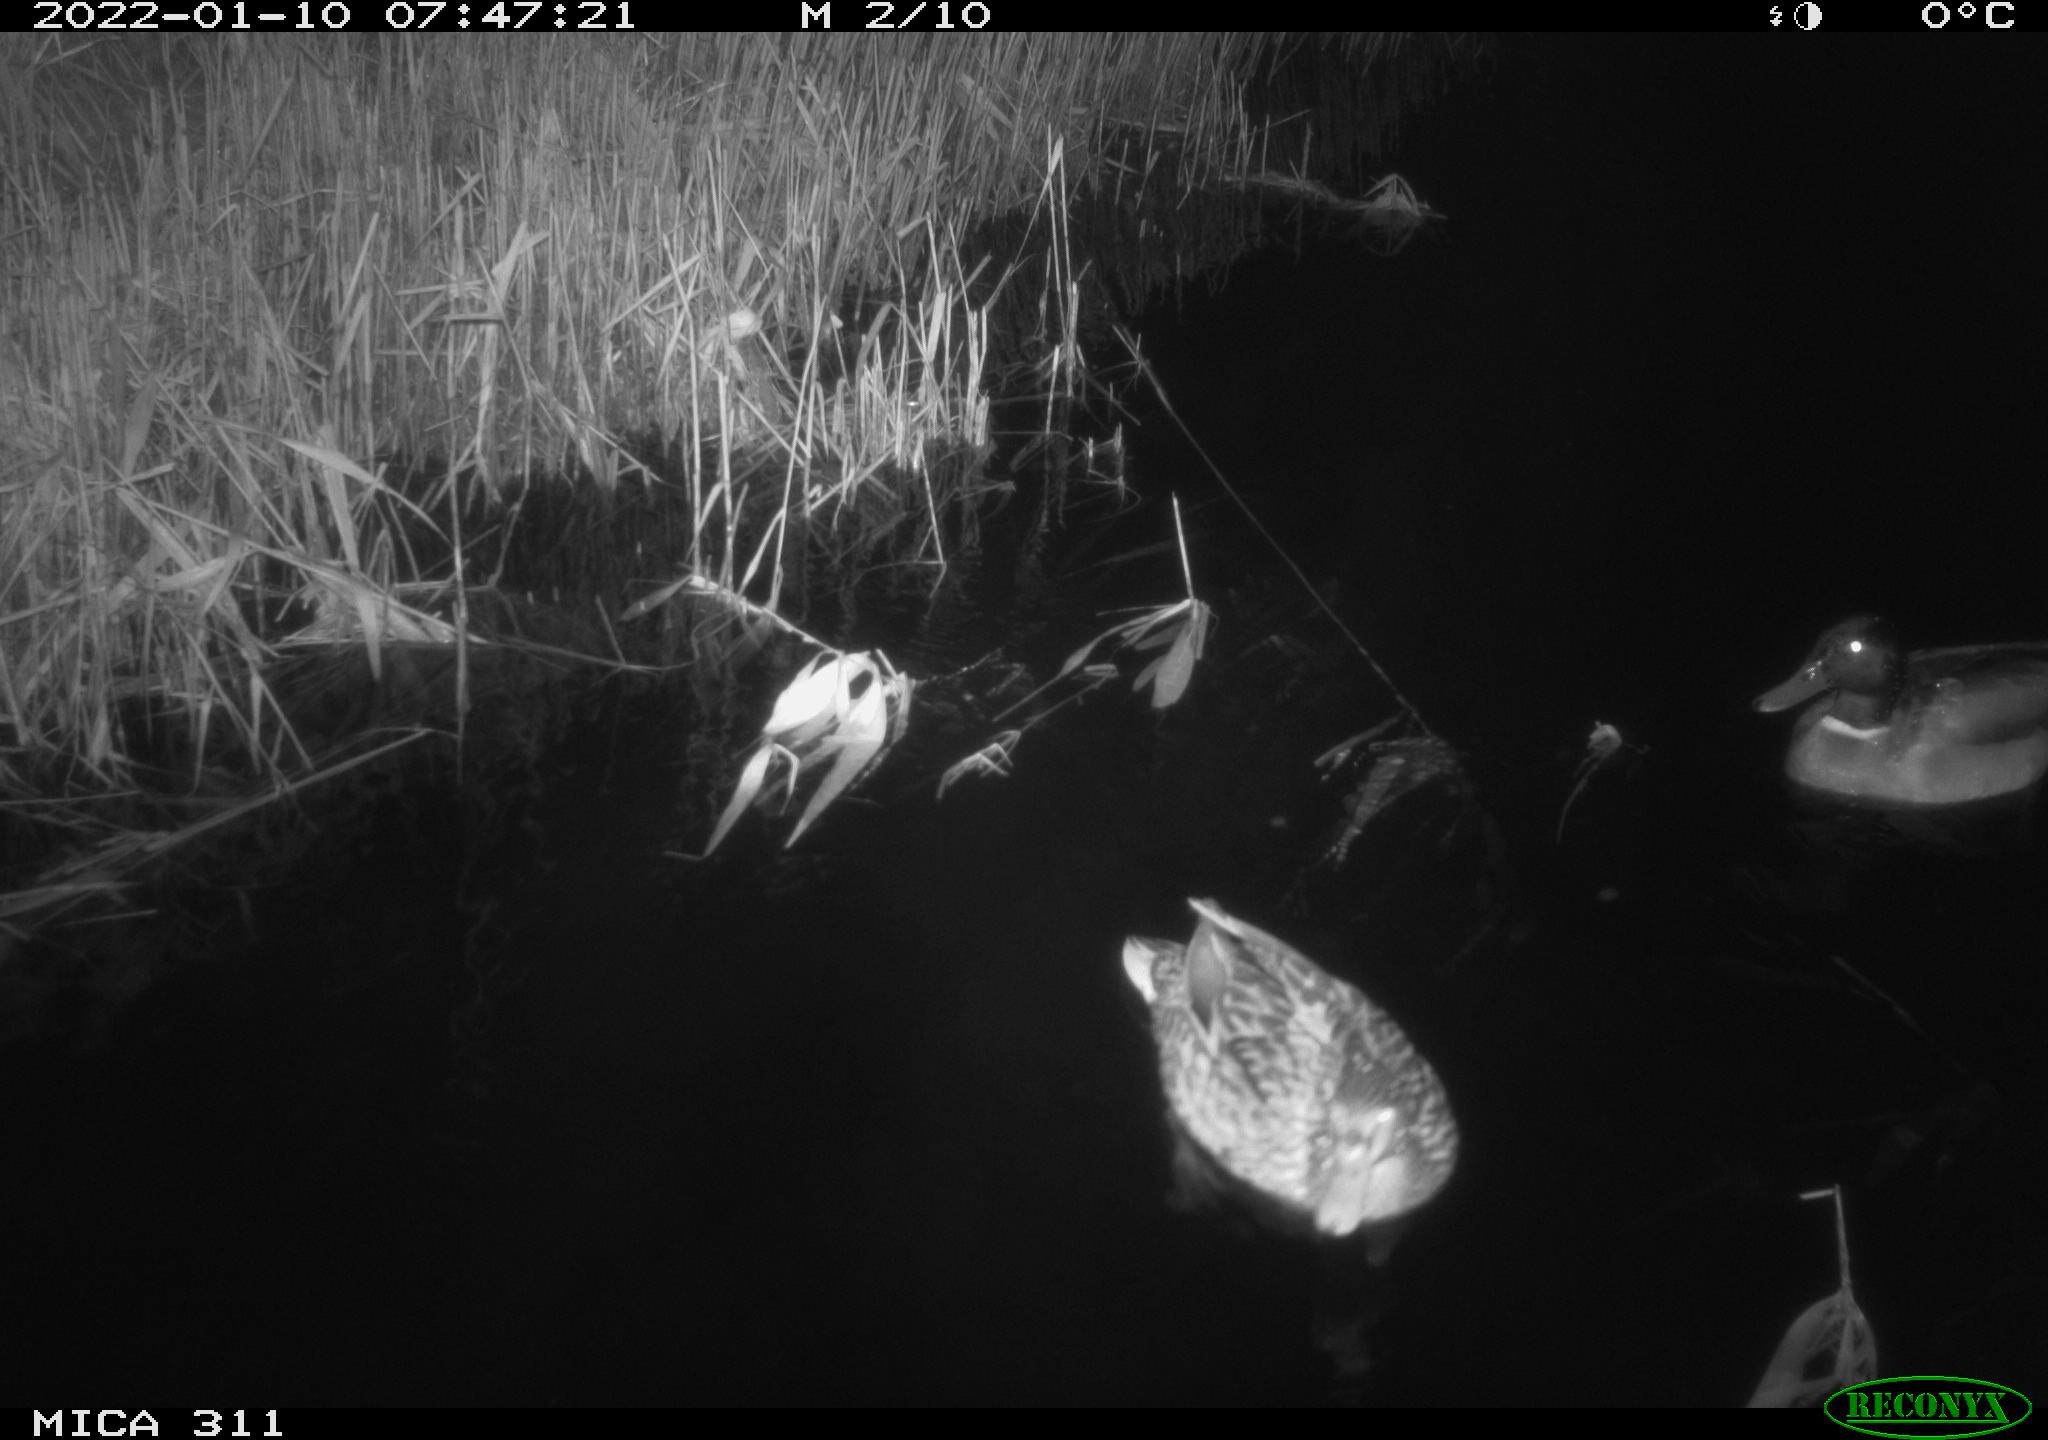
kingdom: Animalia
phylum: Chordata
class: Aves
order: Anseriformes
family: Anatidae
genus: Anas
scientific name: Anas
